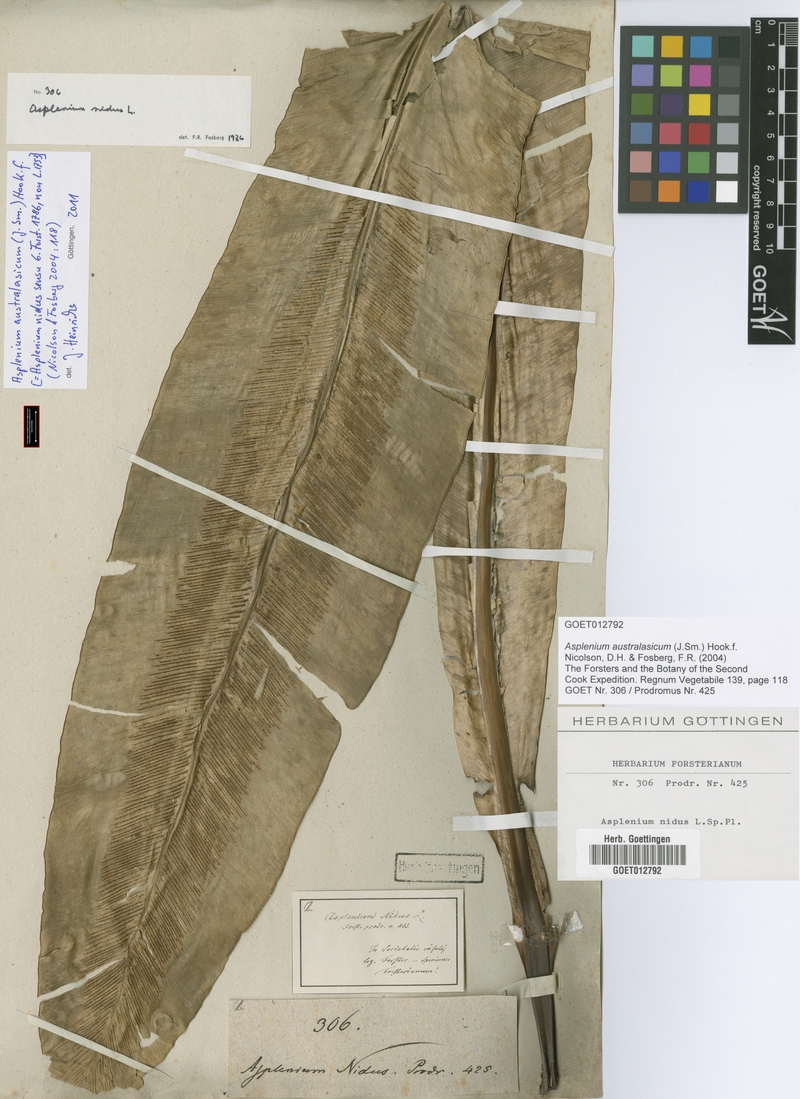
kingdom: Plantae
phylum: Tracheophyta
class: Polypodiopsida
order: Polypodiales
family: Aspleniaceae
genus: Asplenium
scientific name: Asplenium australasicum
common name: Bird's-nest fern
